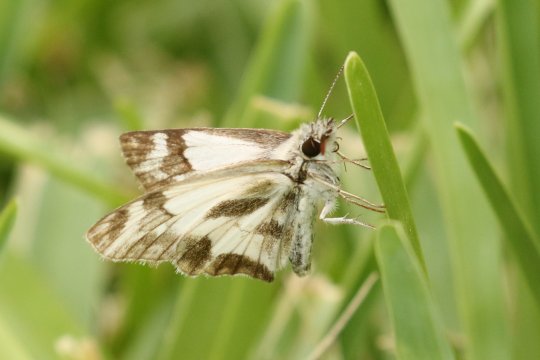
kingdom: Animalia
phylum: Arthropoda
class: Insecta
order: Lepidoptera
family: Hesperiidae
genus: Heliopetes
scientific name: Heliopetes macaira
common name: Turk's-cap White-Skipper
